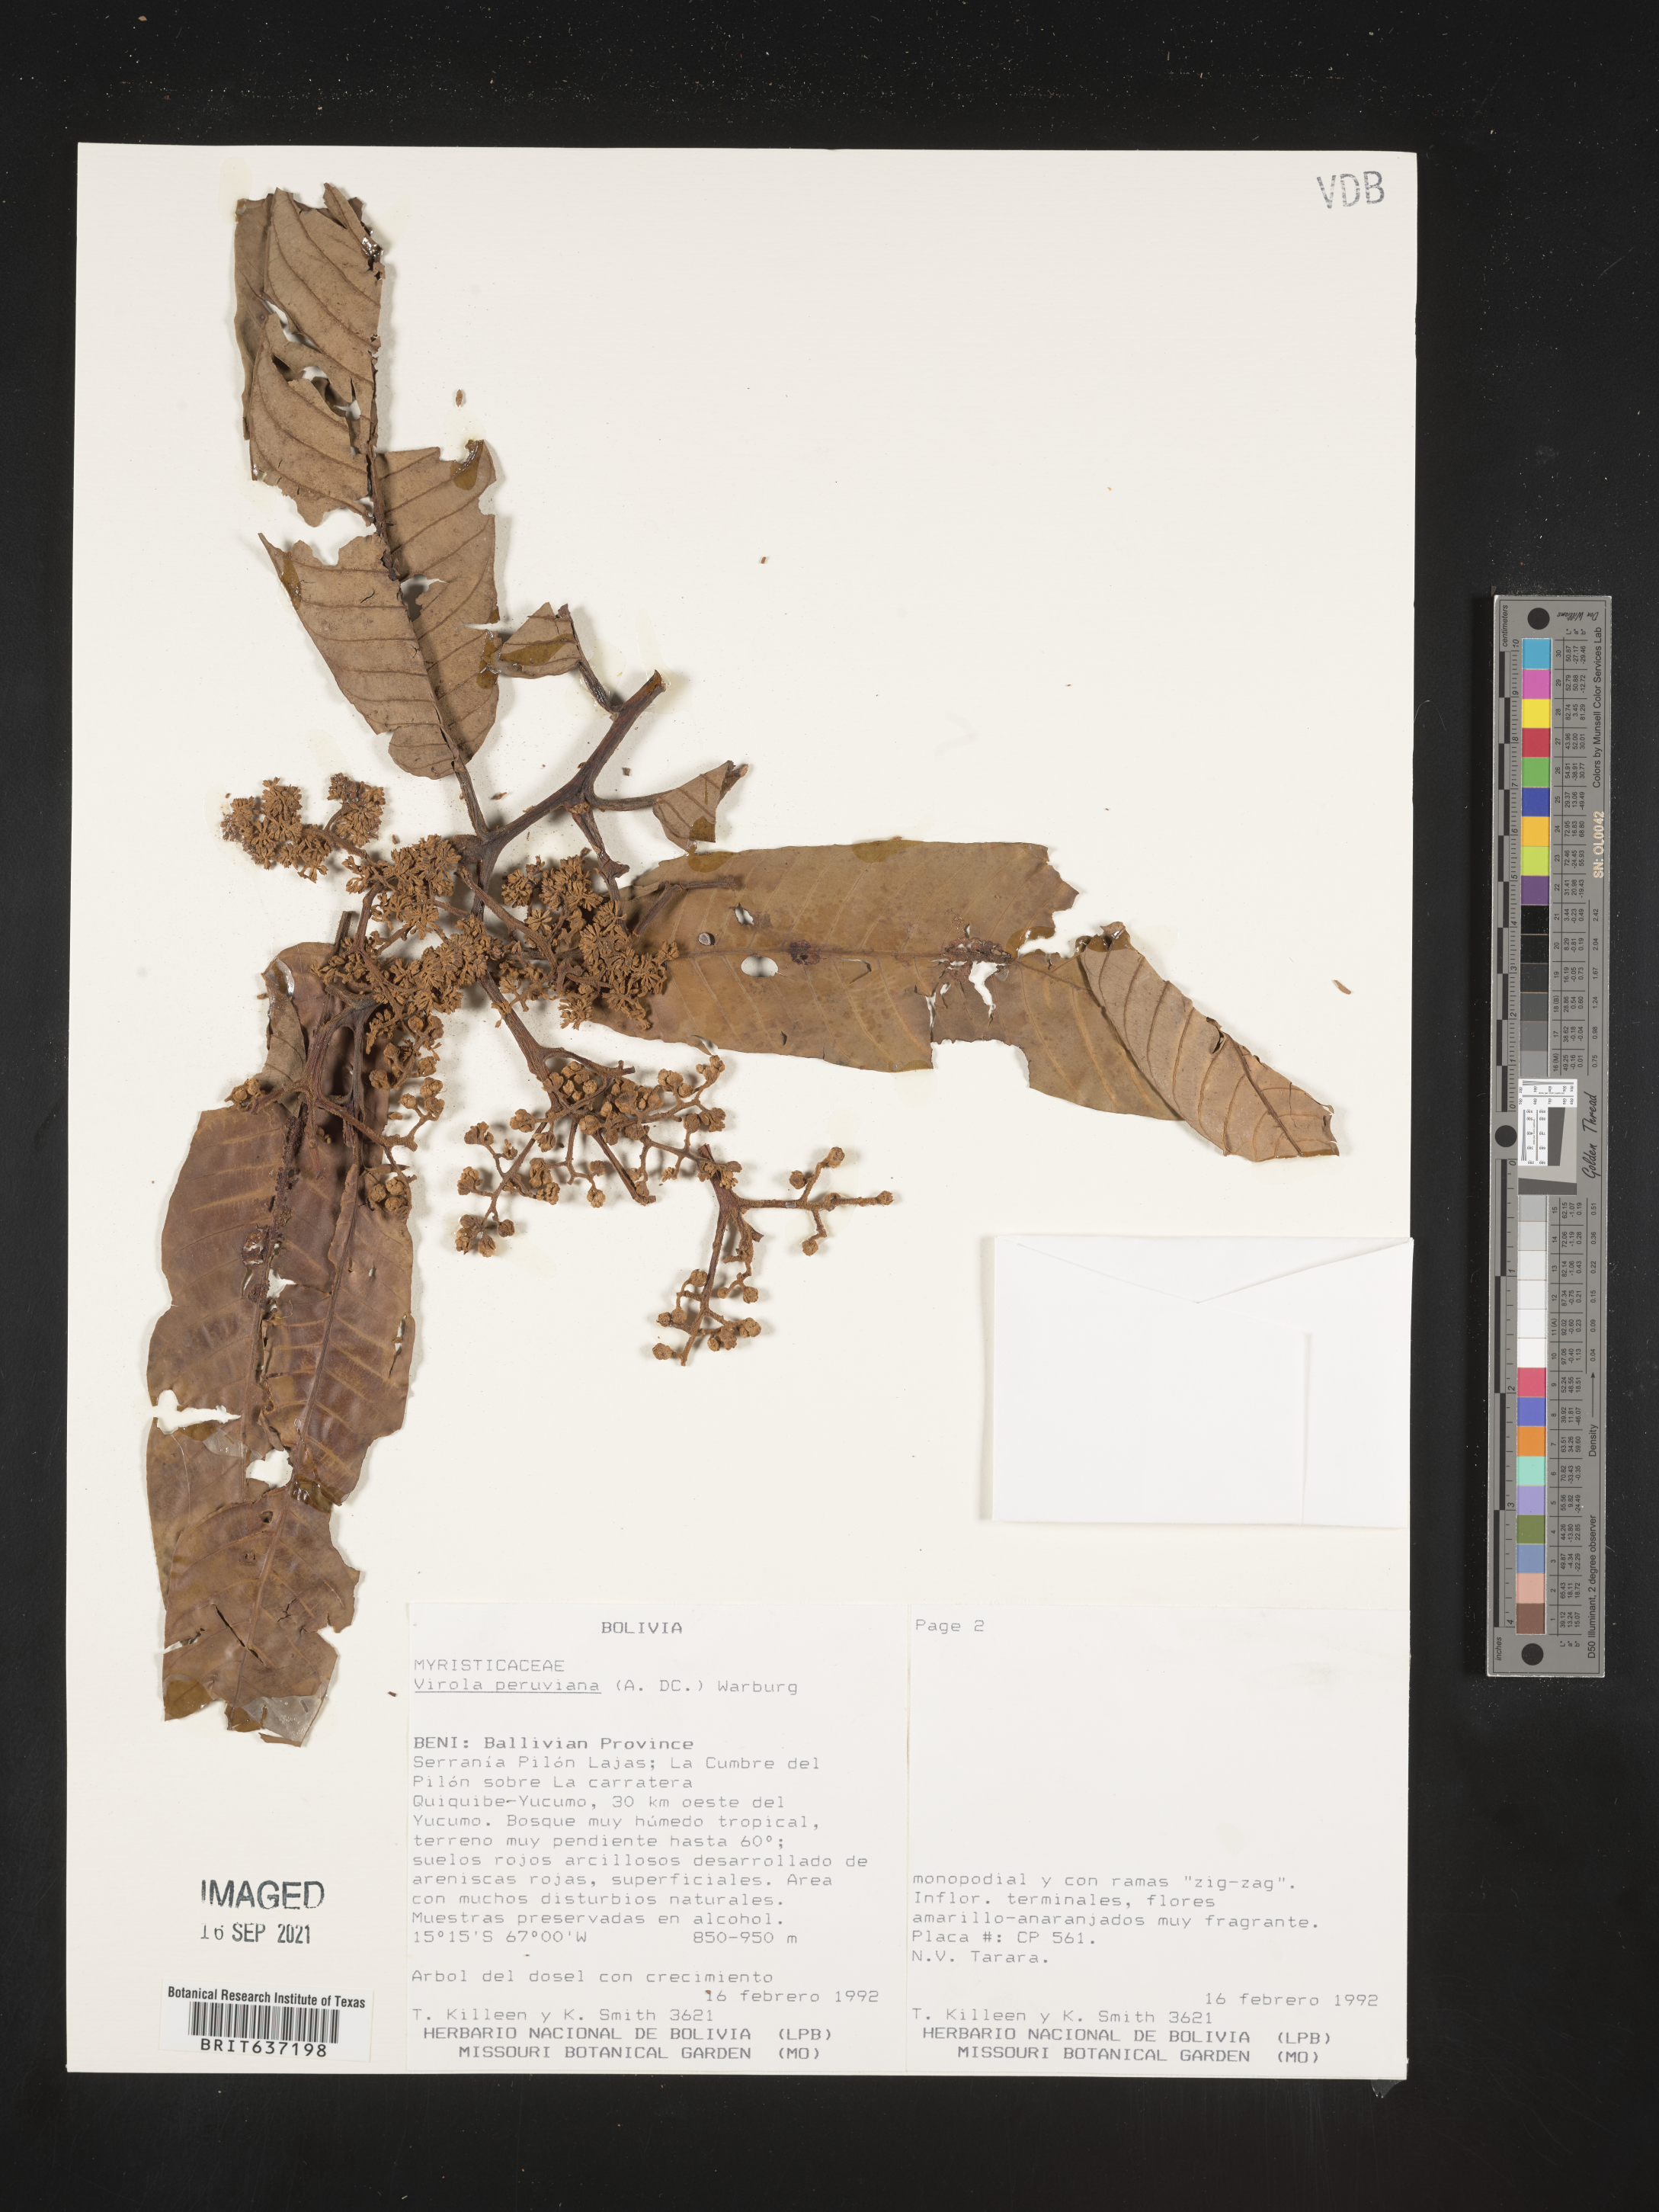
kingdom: Plantae
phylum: Tracheophyta
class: Magnoliopsida
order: Magnoliales
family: Myristicaceae
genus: Virola
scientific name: Virola
